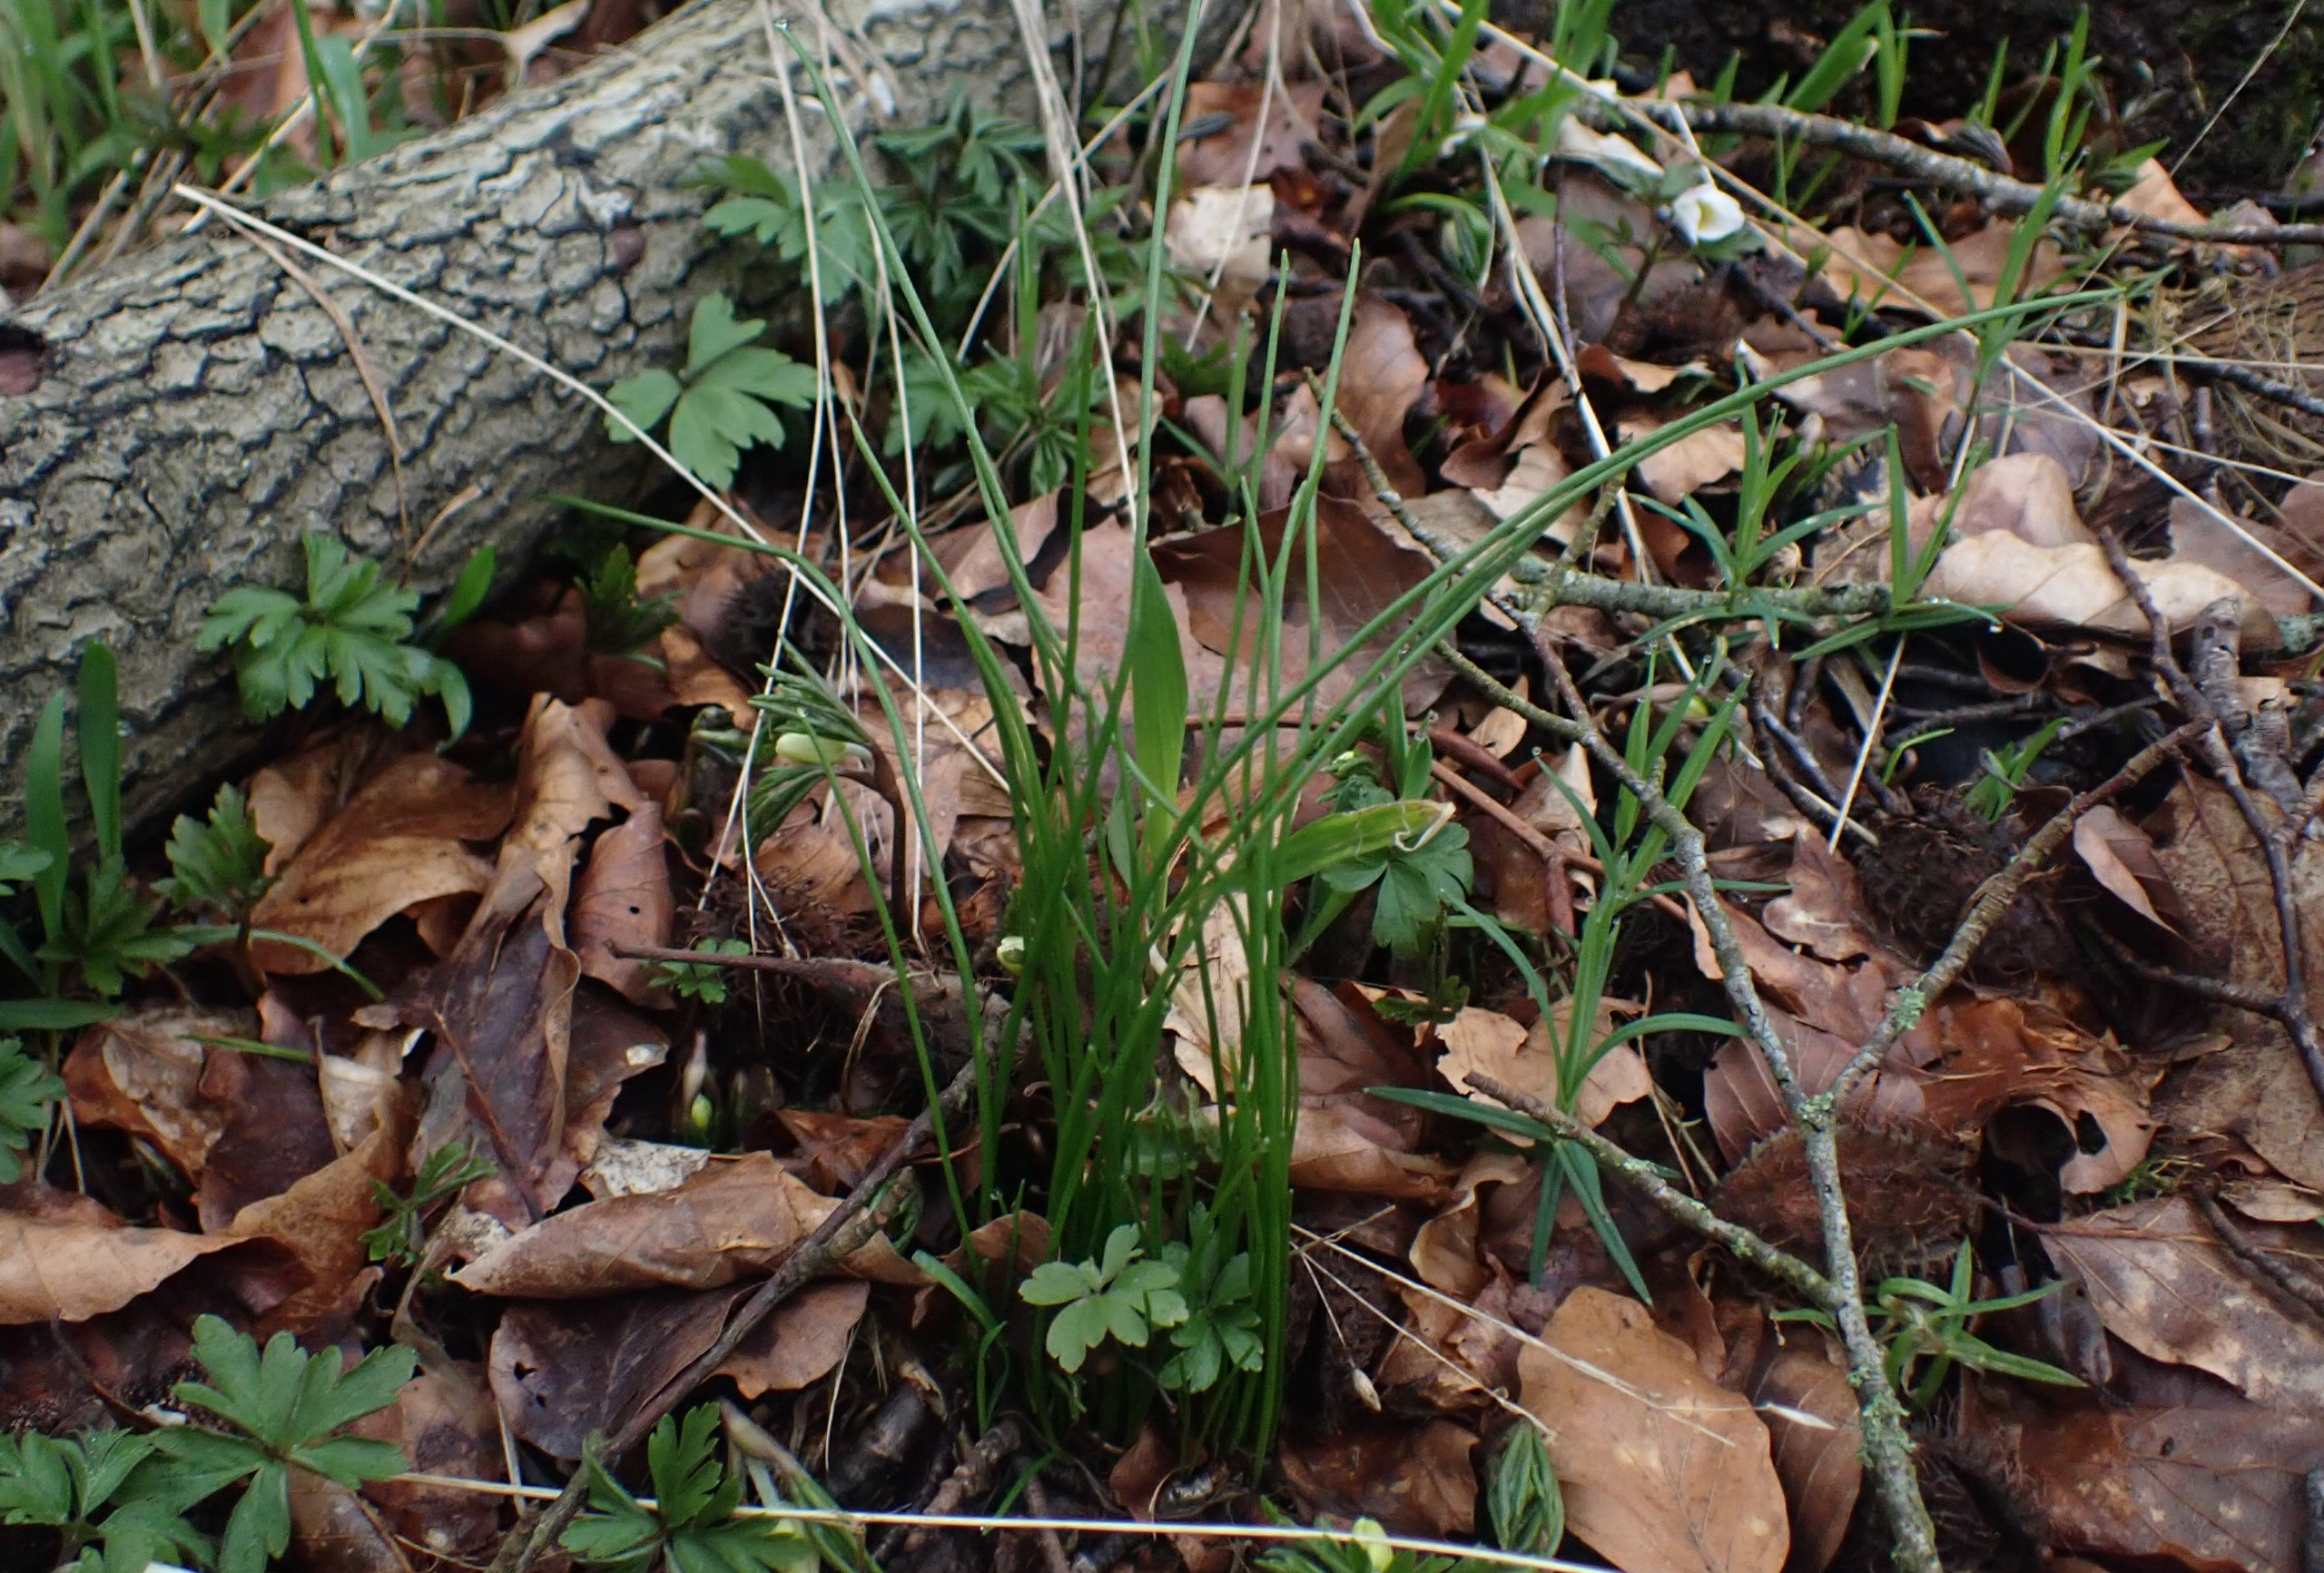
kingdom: Plantae
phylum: Tracheophyta
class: Liliopsida
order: Liliales
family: Liliaceae
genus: Gagea
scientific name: Gagea spathacea
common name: Hylster-guldstjerne
